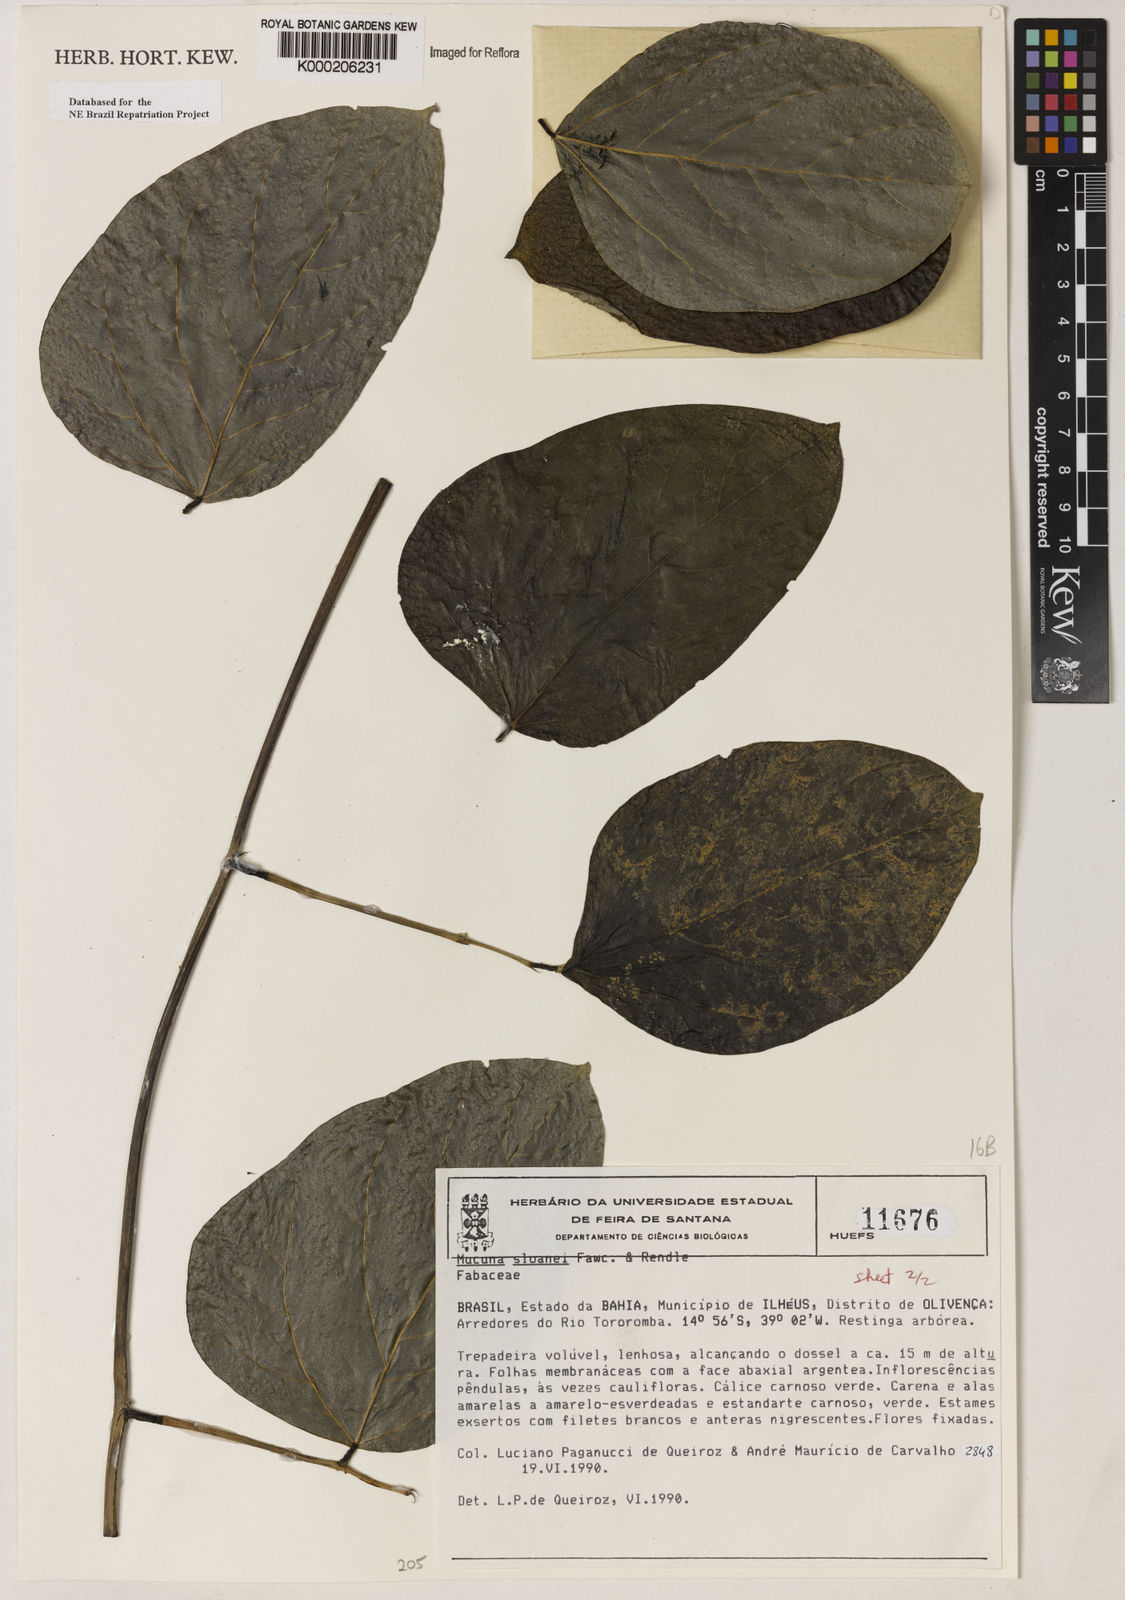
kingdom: Plantae
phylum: Tracheophyta
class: Magnoliopsida
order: Fabales
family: Fabaceae
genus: Mucuna
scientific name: Mucuna sloanei
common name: Horse-eye bean
